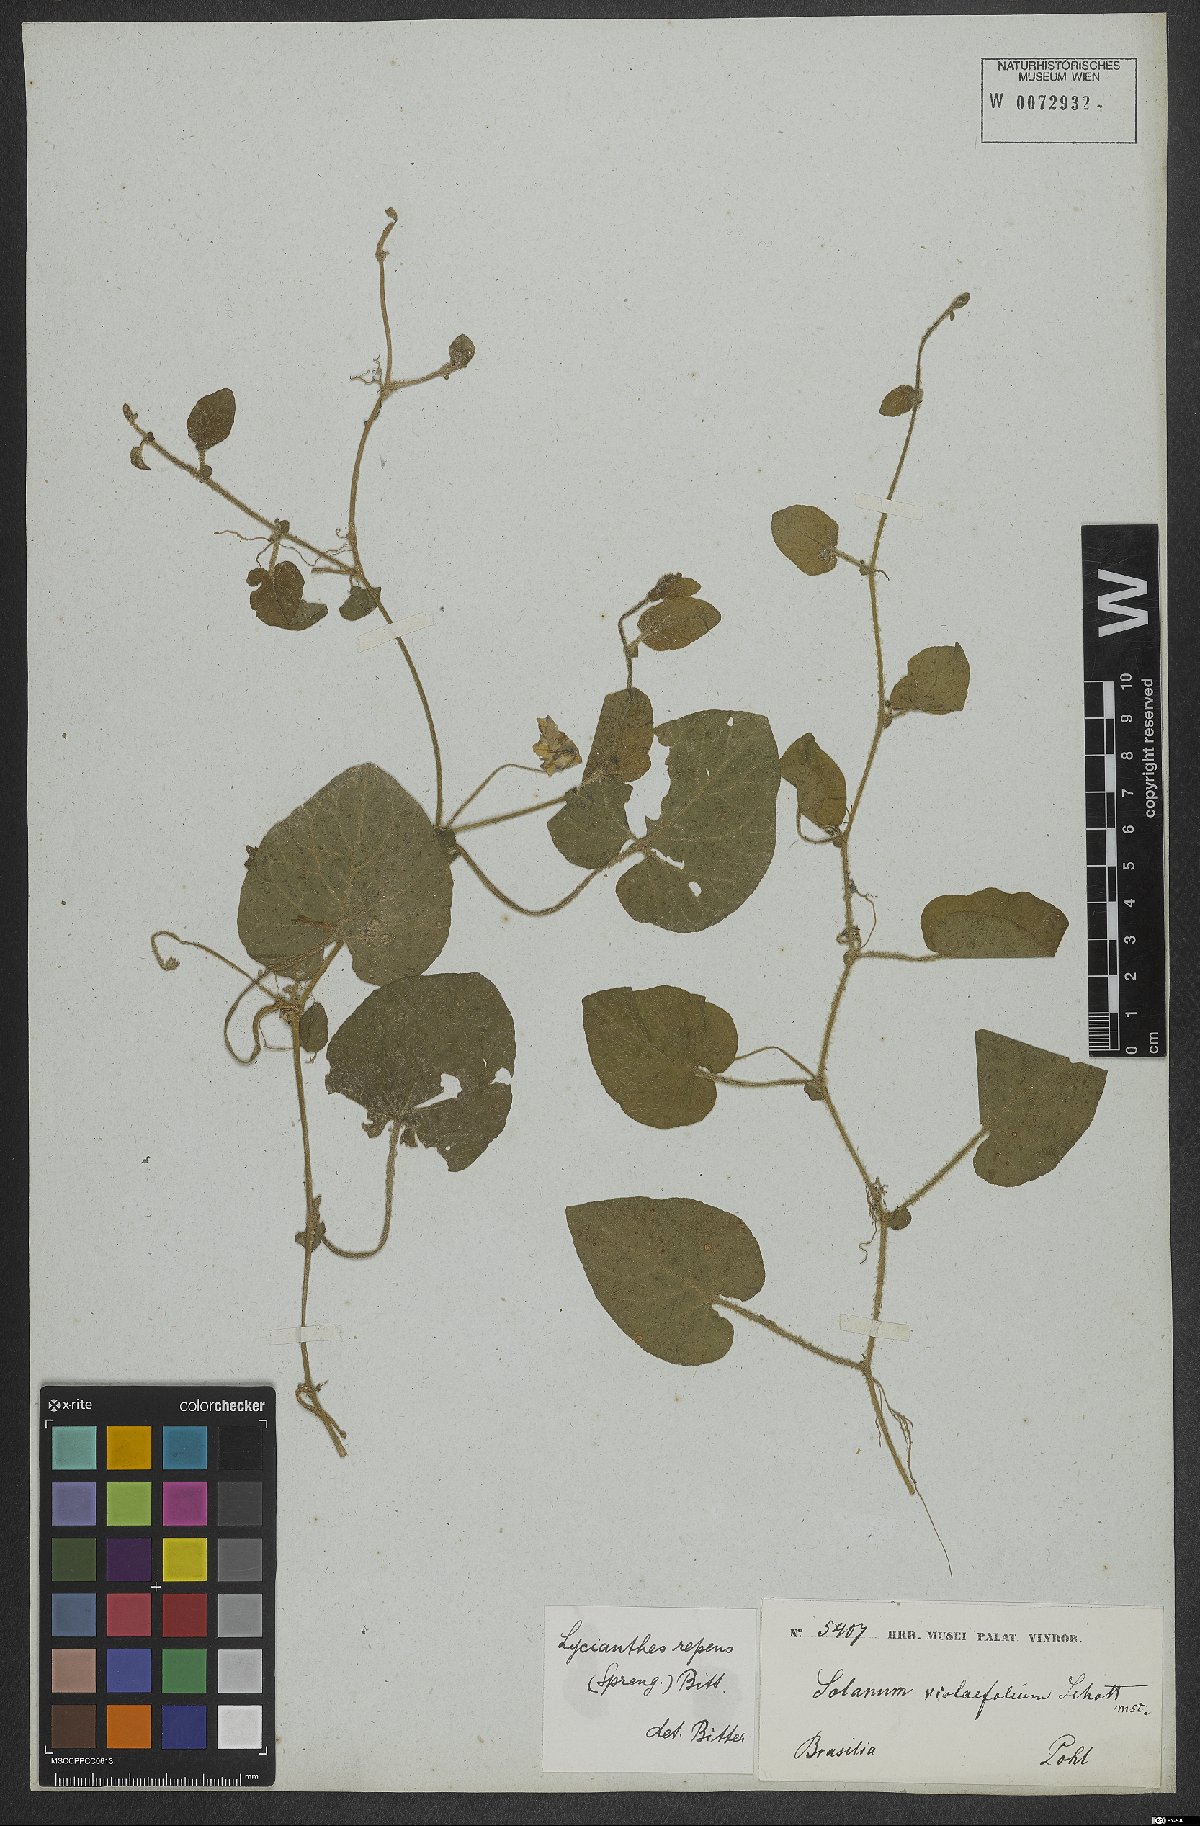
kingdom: Plantae
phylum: Tracheophyta
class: Magnoliopsida
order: Solanales
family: Solanaceae
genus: Lycianthes
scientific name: Lycianthes repens
